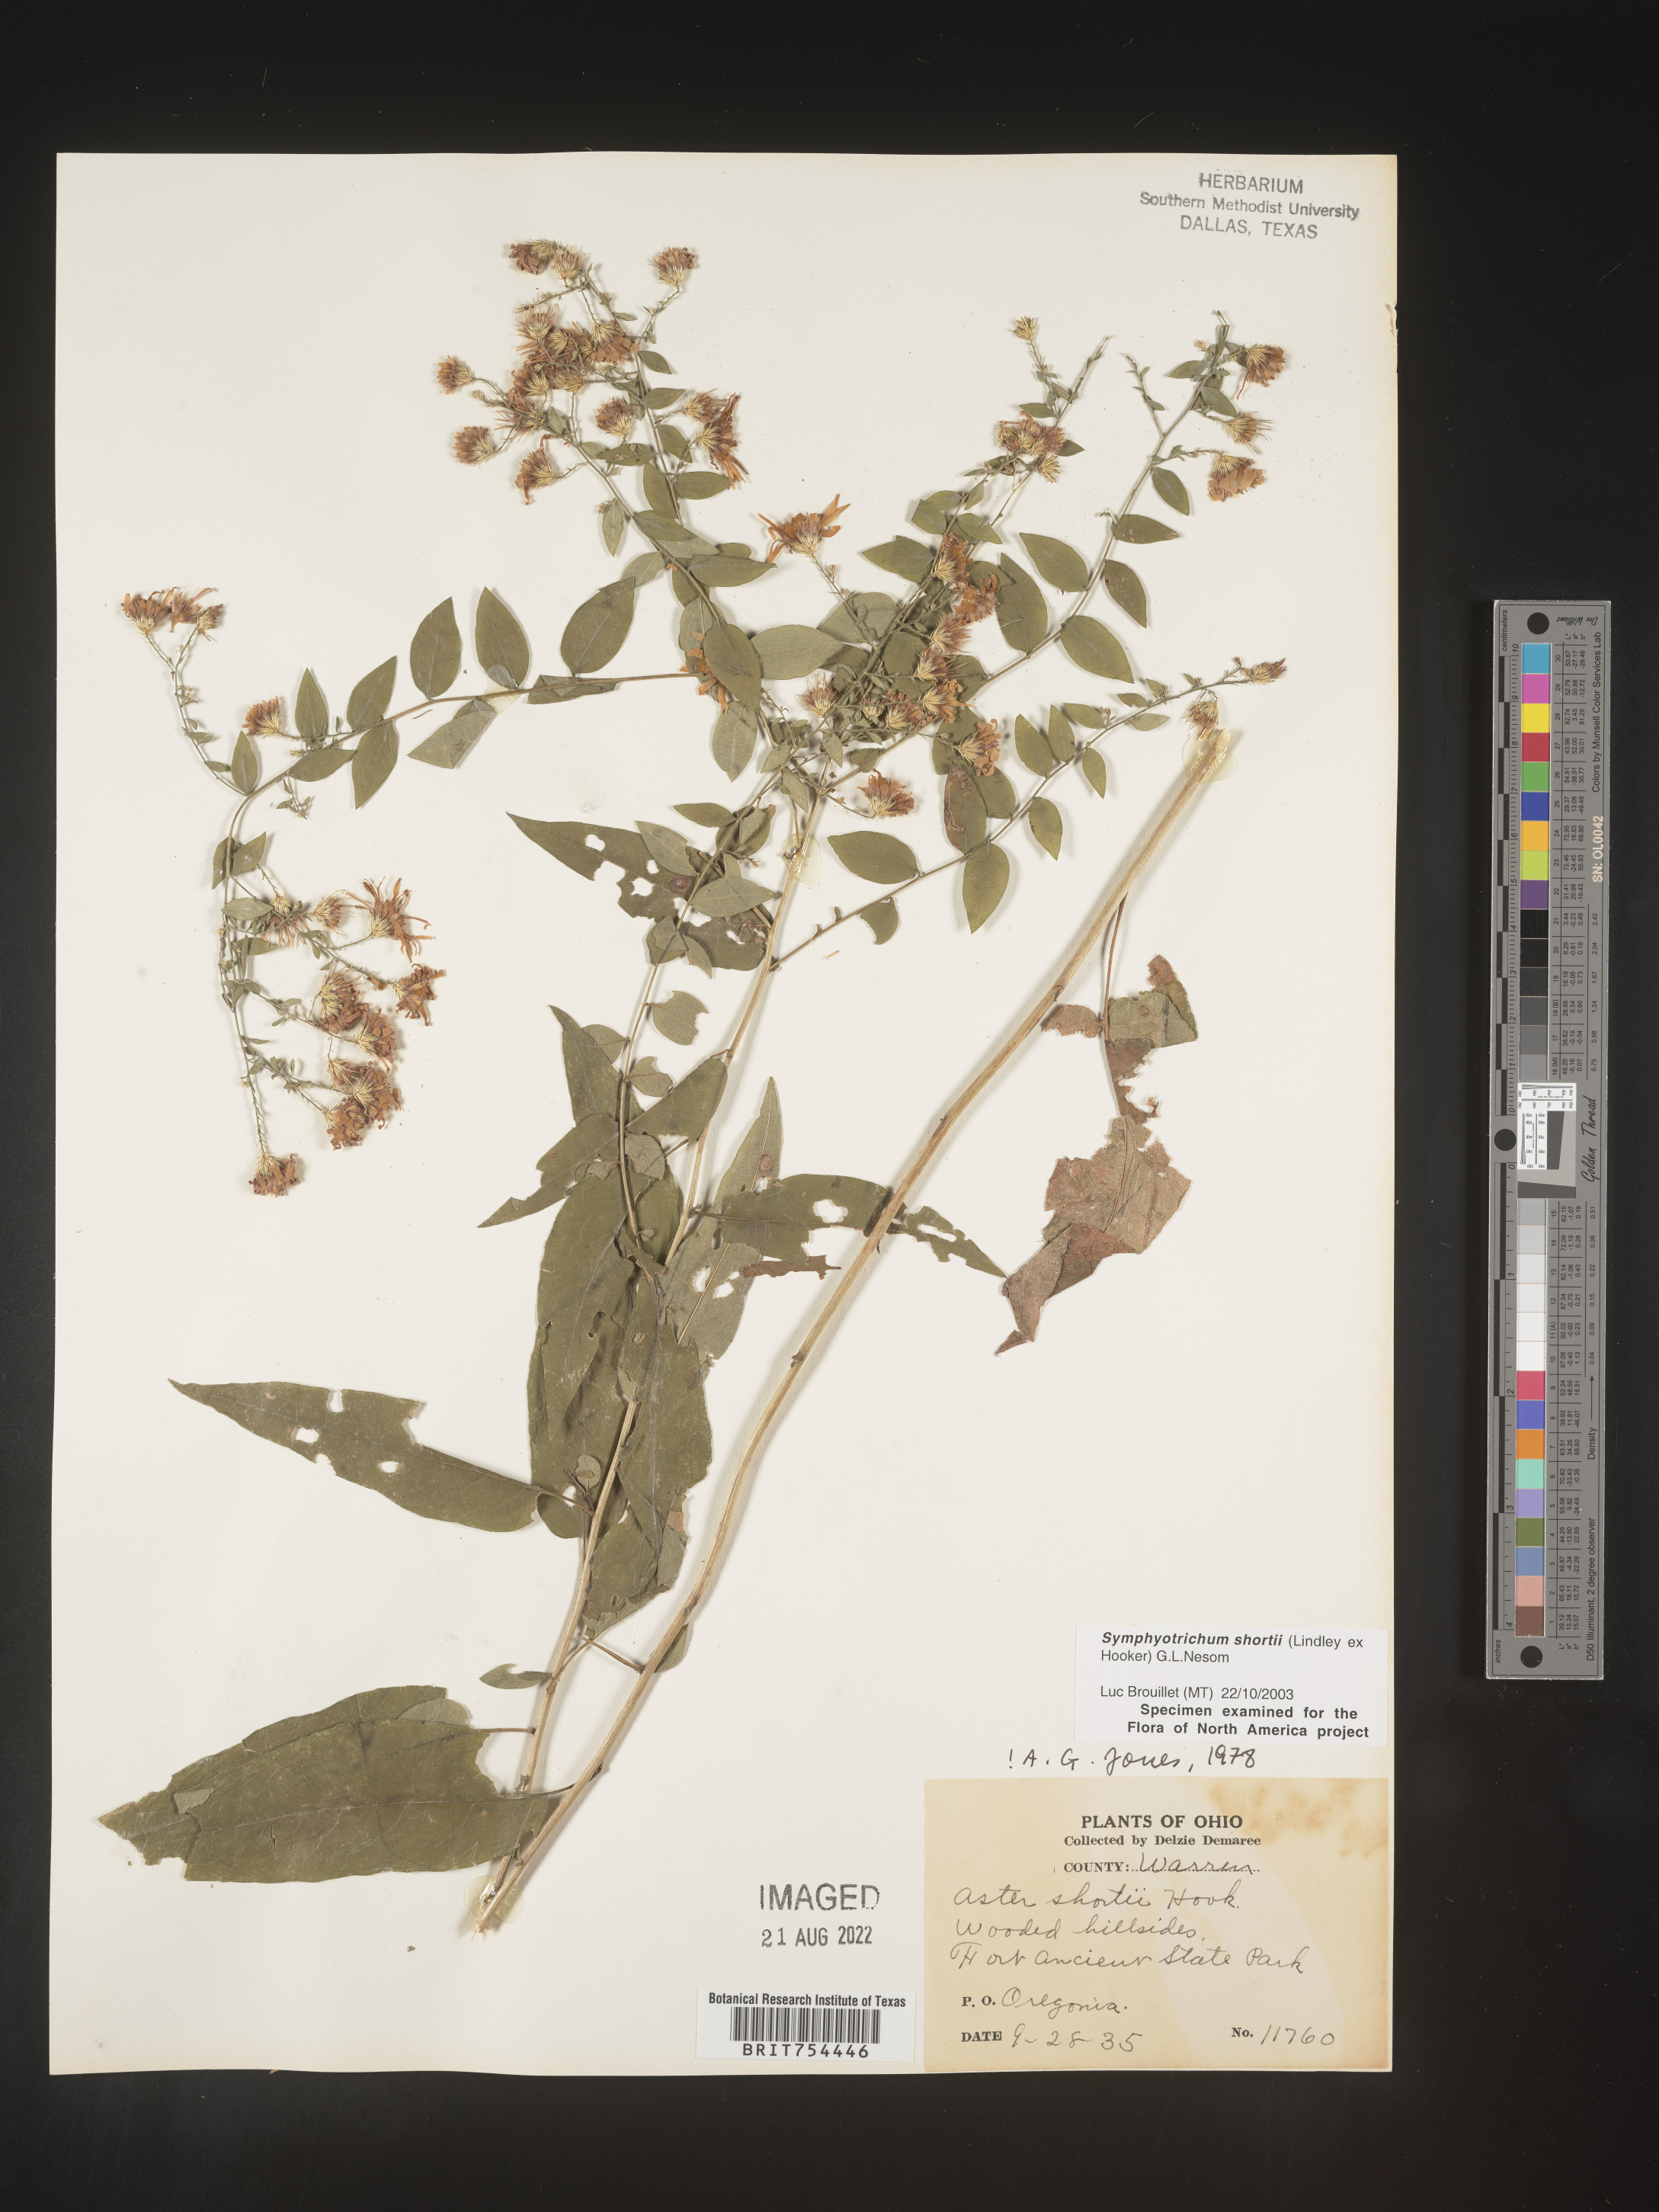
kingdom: Plantae
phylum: Tracheophyta
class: Magnoliopsida
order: Asterales
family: Asteraceae
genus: Symphyotrichum
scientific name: Symphyotrichum shortii
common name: Short's aster
